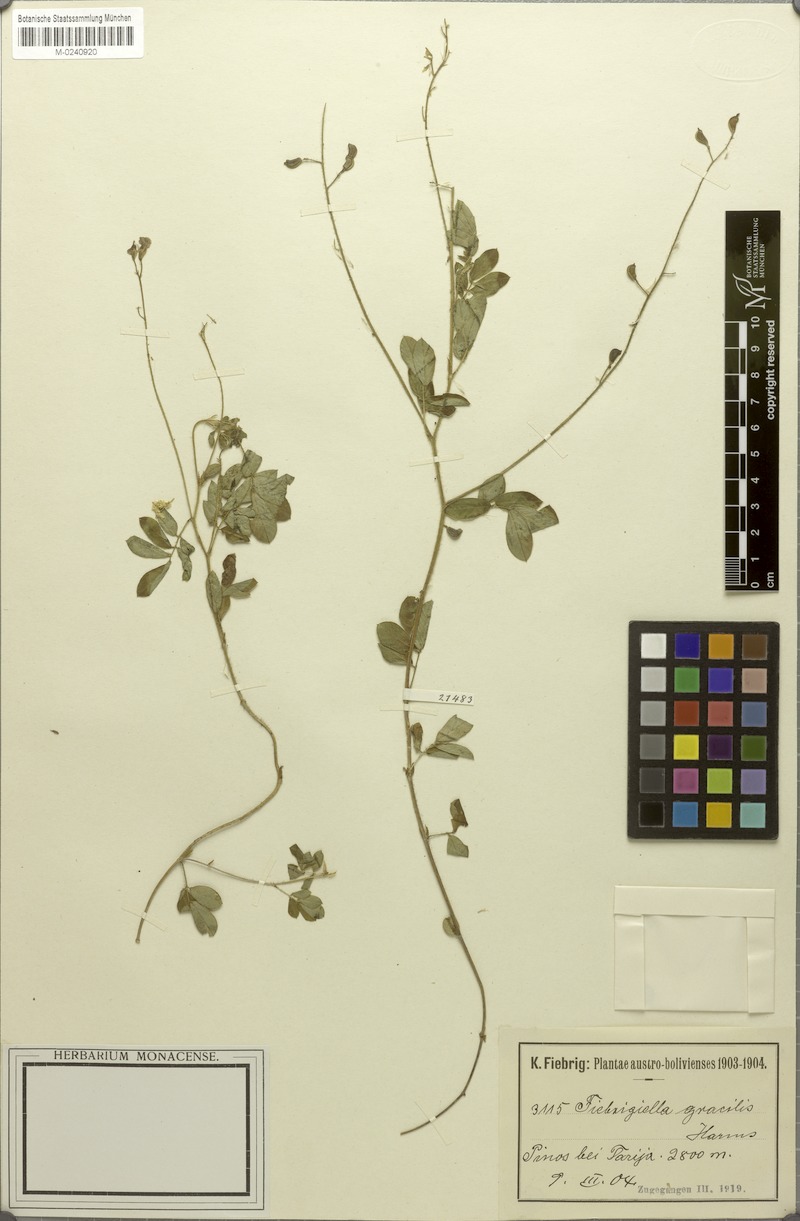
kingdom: Plantae
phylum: Tracheophyta
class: Magnoliopsida
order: Fabales
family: Fabaceae
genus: Fiebrigiella
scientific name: Fiebrigiella gracilis
